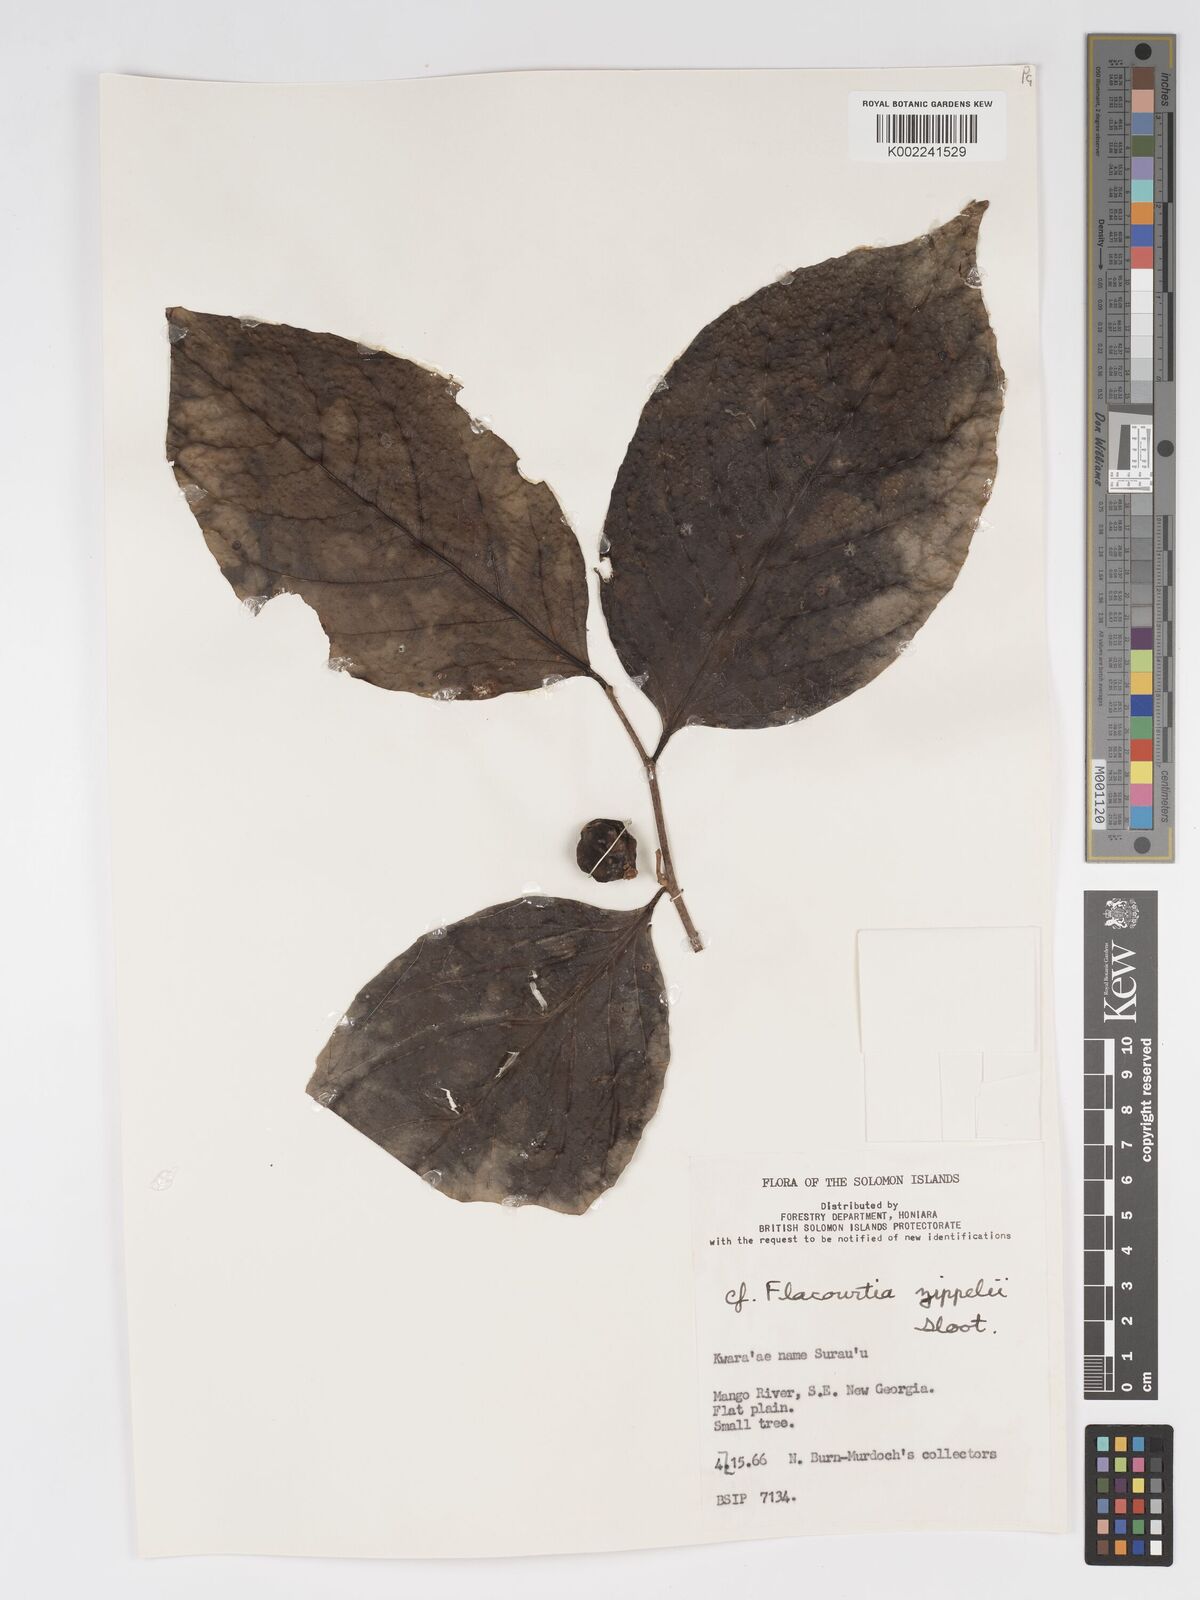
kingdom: Plantae
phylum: Tracheophyta
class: Magnoliopsida
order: Malpighiales
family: Salicaceae
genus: Flacourtia
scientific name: Flacourtia zippelii
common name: Zippeli plum
